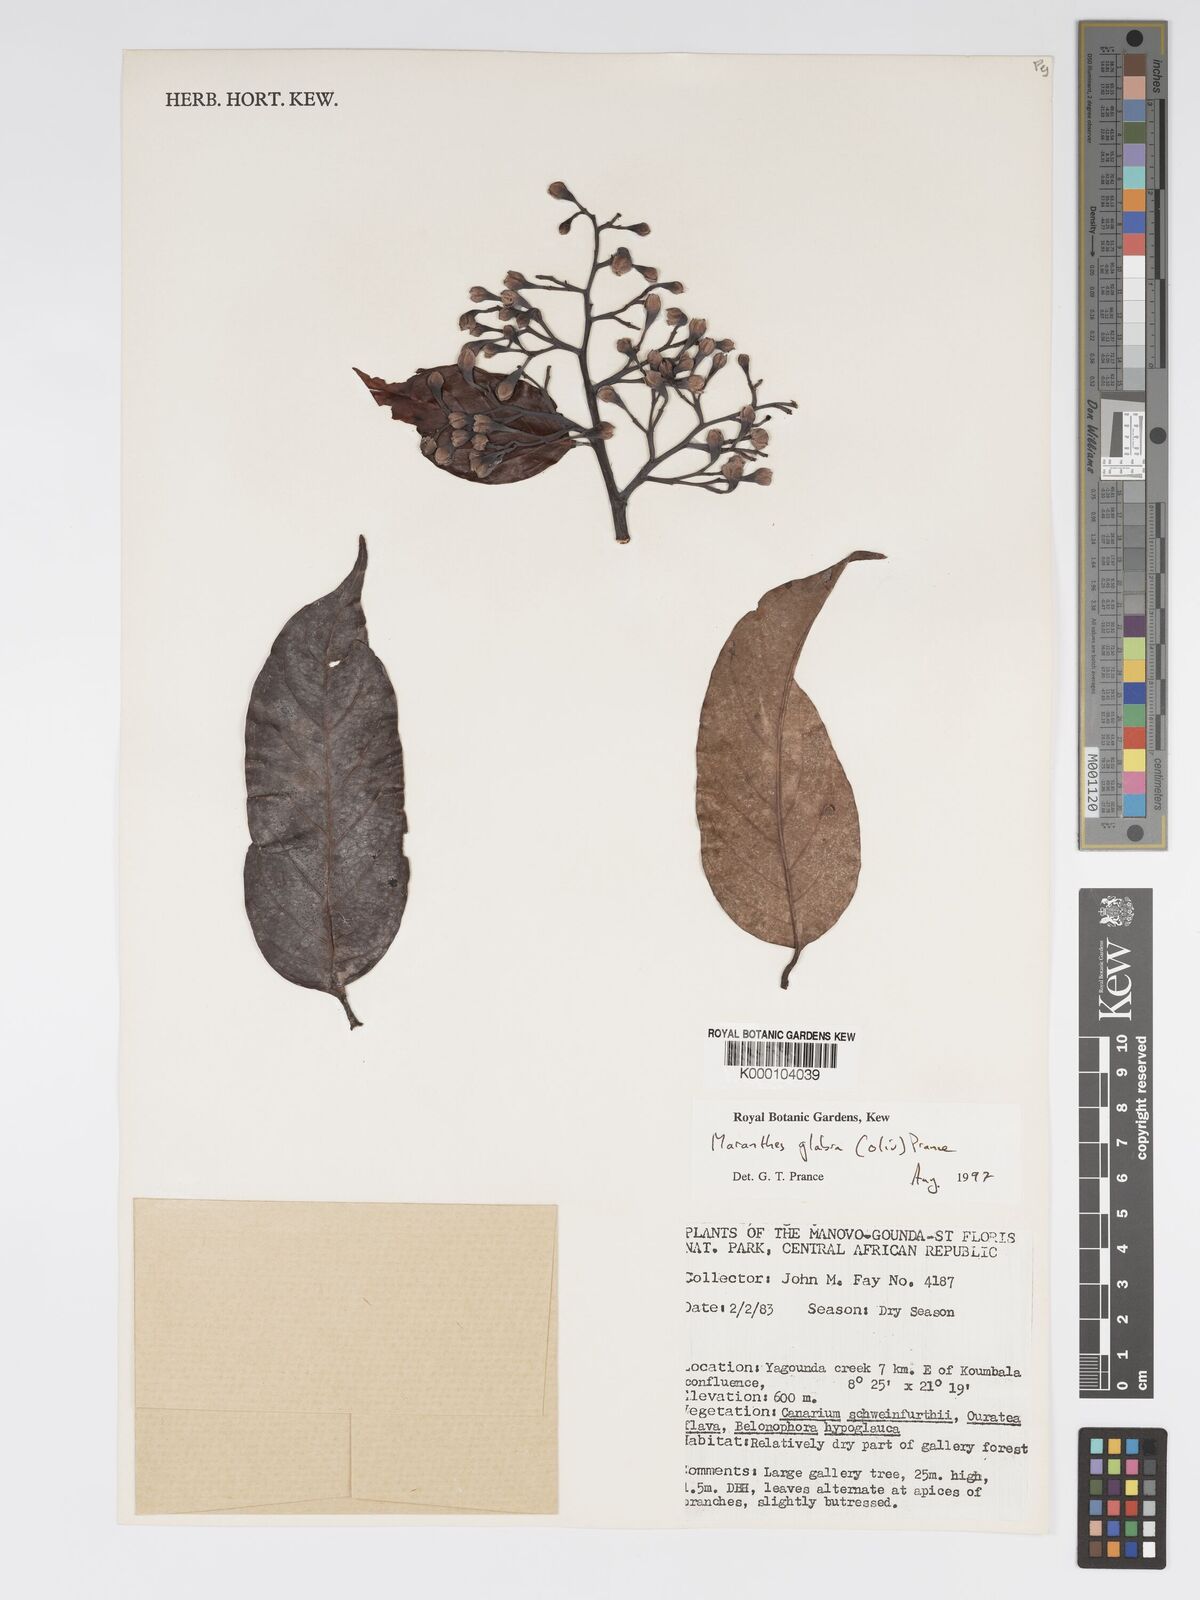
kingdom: Plantae
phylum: Tracheophyta
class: Magnoliopsida
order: Malpighiales
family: Chrysobalanaceae
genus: Maranthes
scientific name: Maranthes glabra
